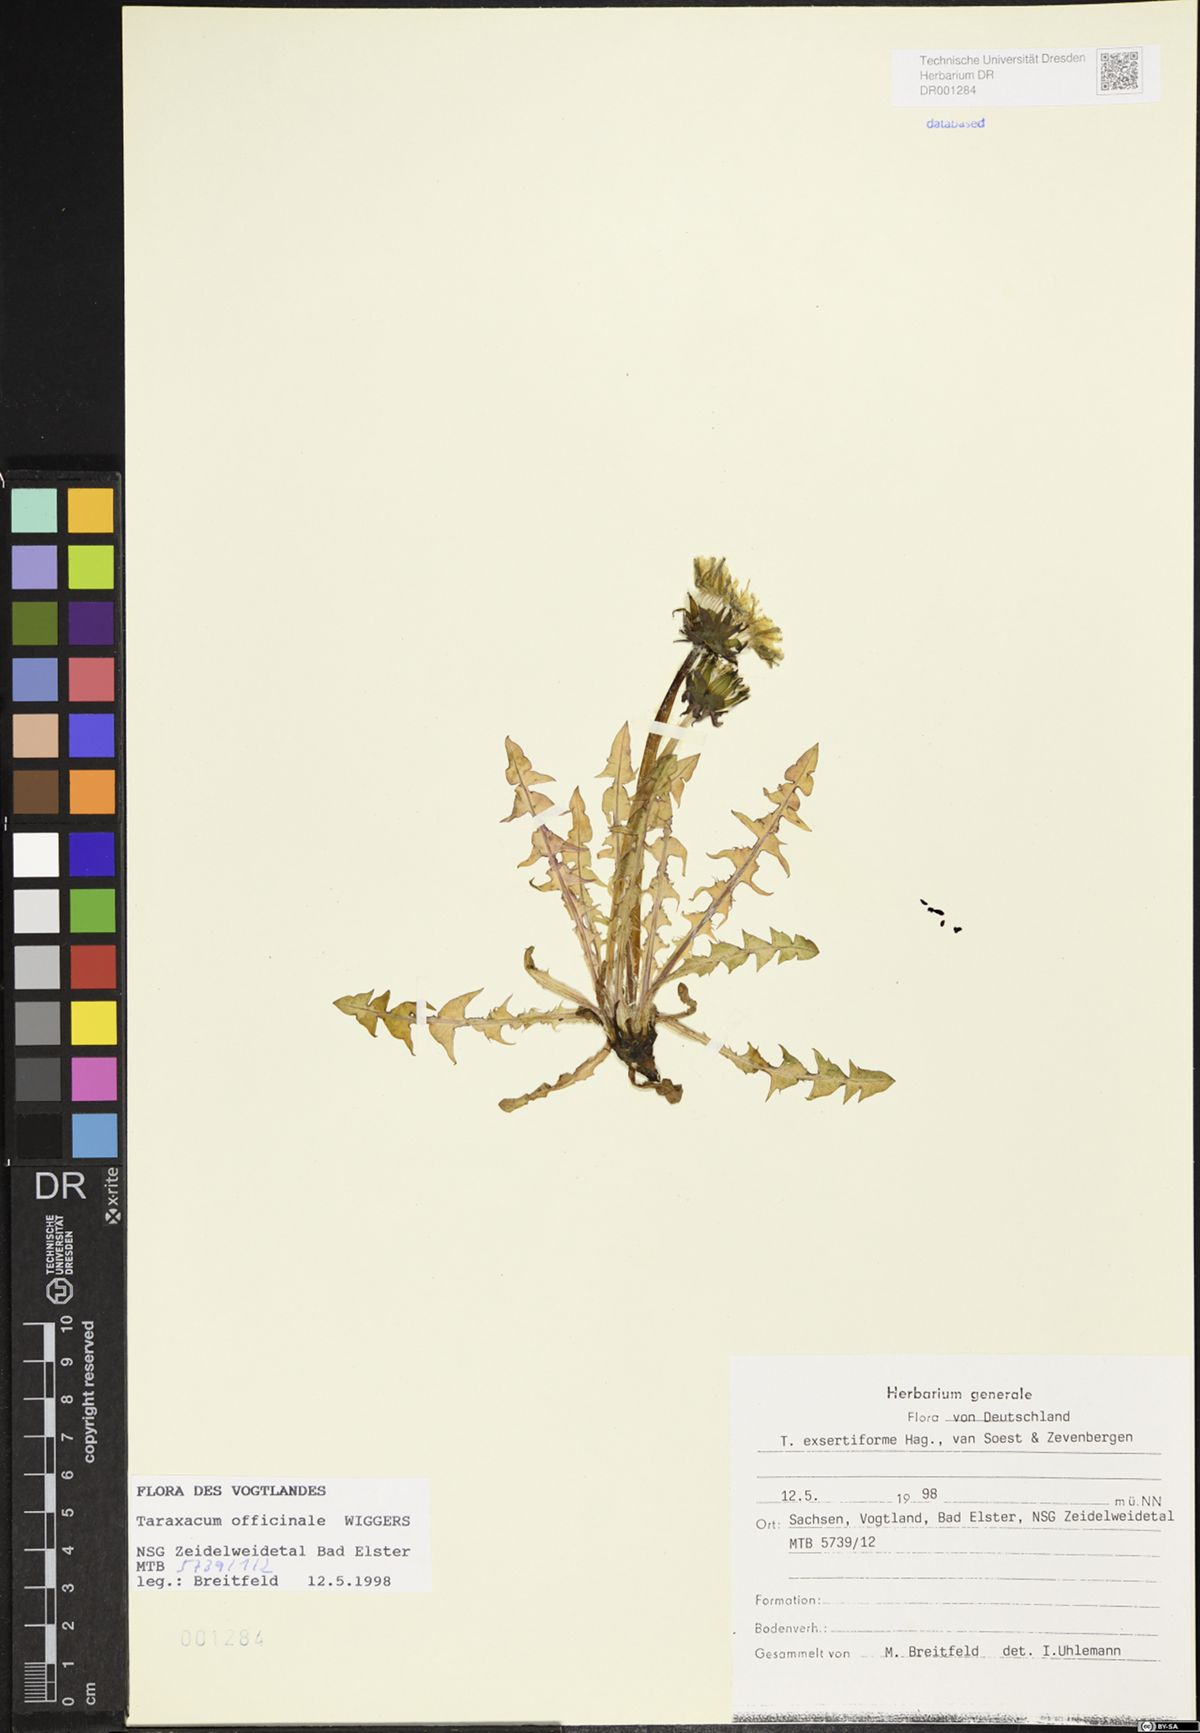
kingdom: Plantae
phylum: Tracheophyta
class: Magnoliopsida
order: Asterales
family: Asteraceae
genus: Taraxacum
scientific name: Taraxacum exsertiforme
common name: Erect-bracted dandelion
